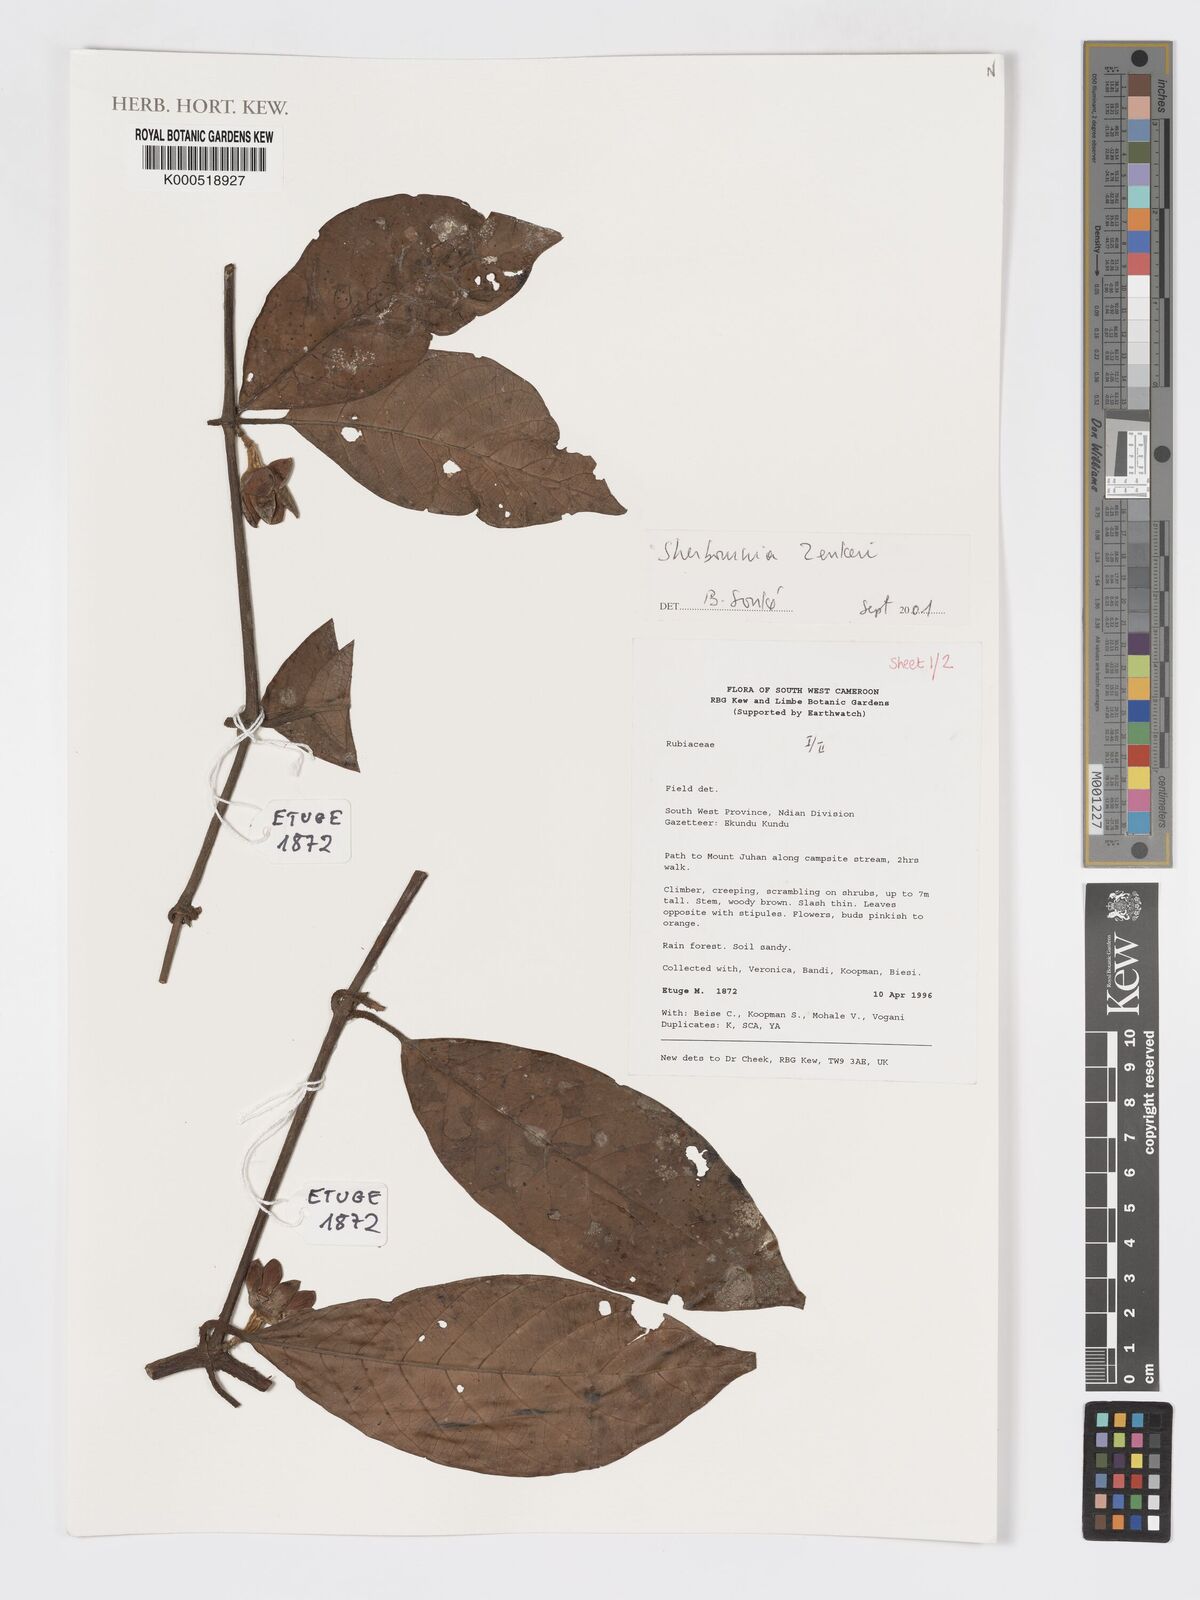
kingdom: Plantae
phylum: Tracheophyta
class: Magnoliopsida
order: Gentianales
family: Rubiaceae
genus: Sherbournia
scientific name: Sherbournia zenkeri
